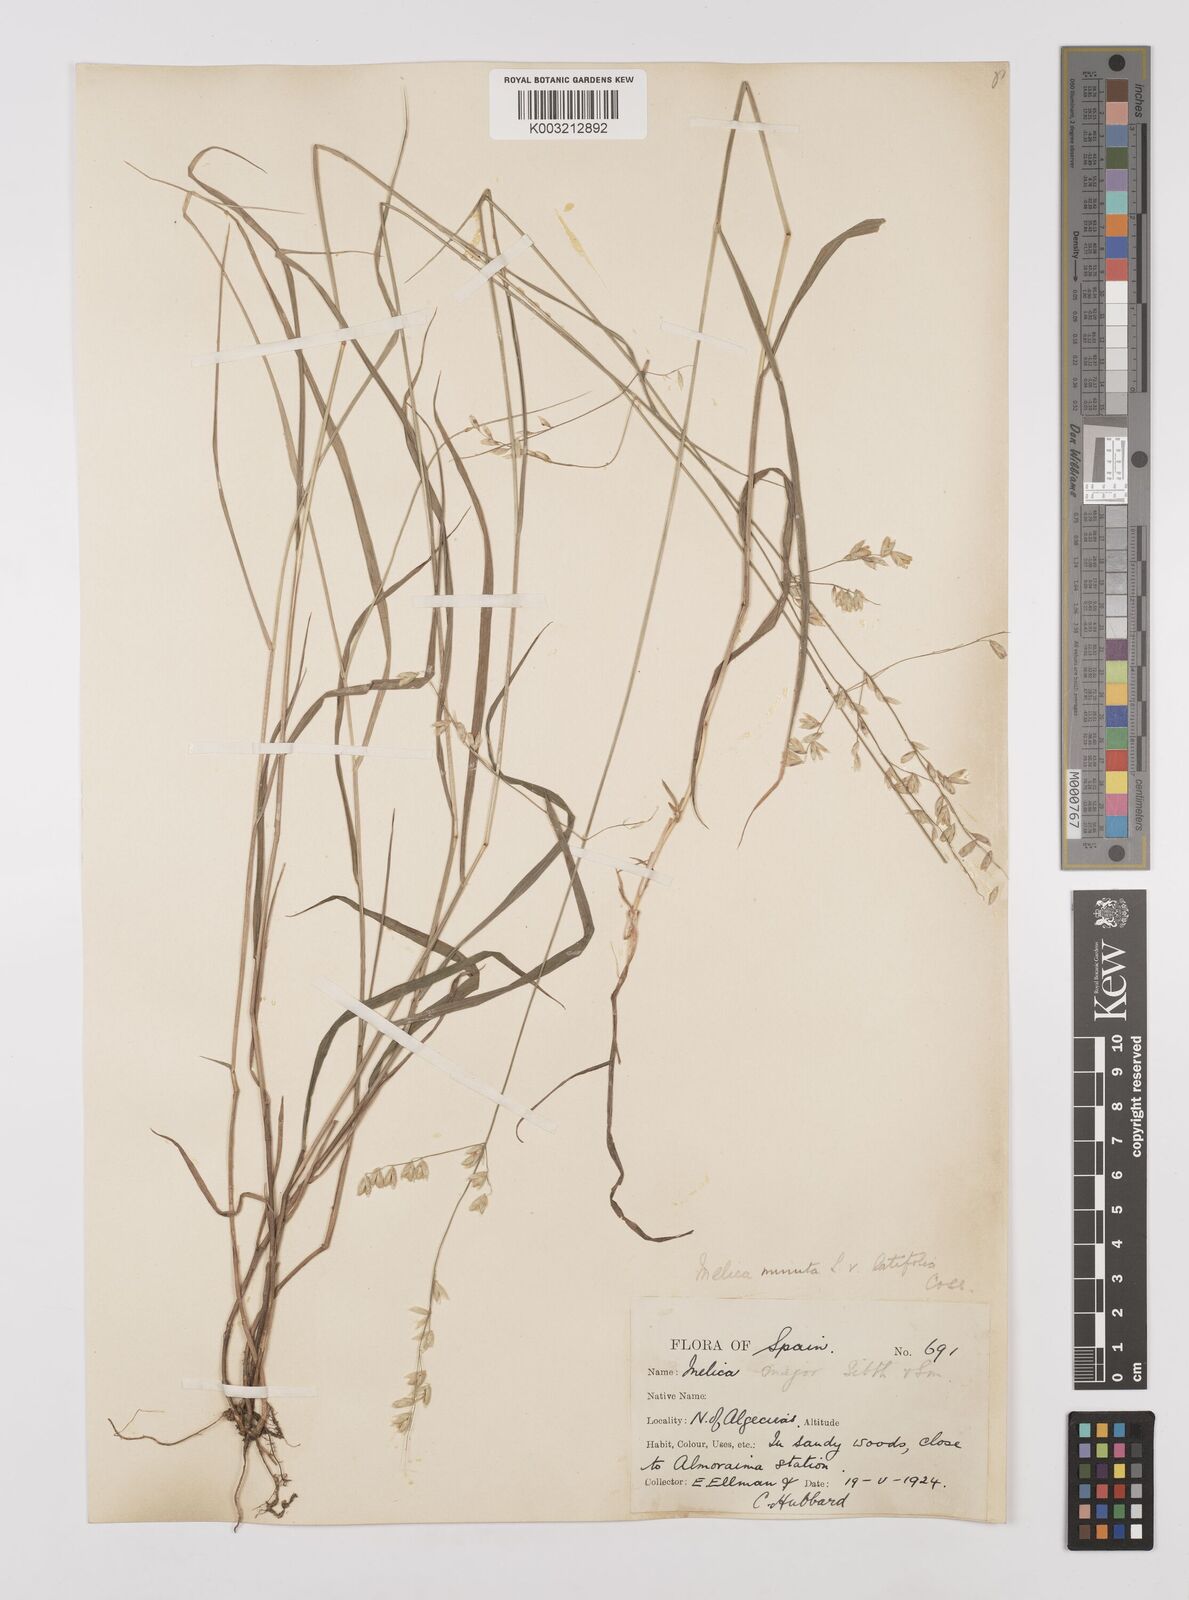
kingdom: Plantae
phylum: Tracheophyta
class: Liliopsida
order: Poales
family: Poaceae
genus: Melica
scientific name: Melica minuta
